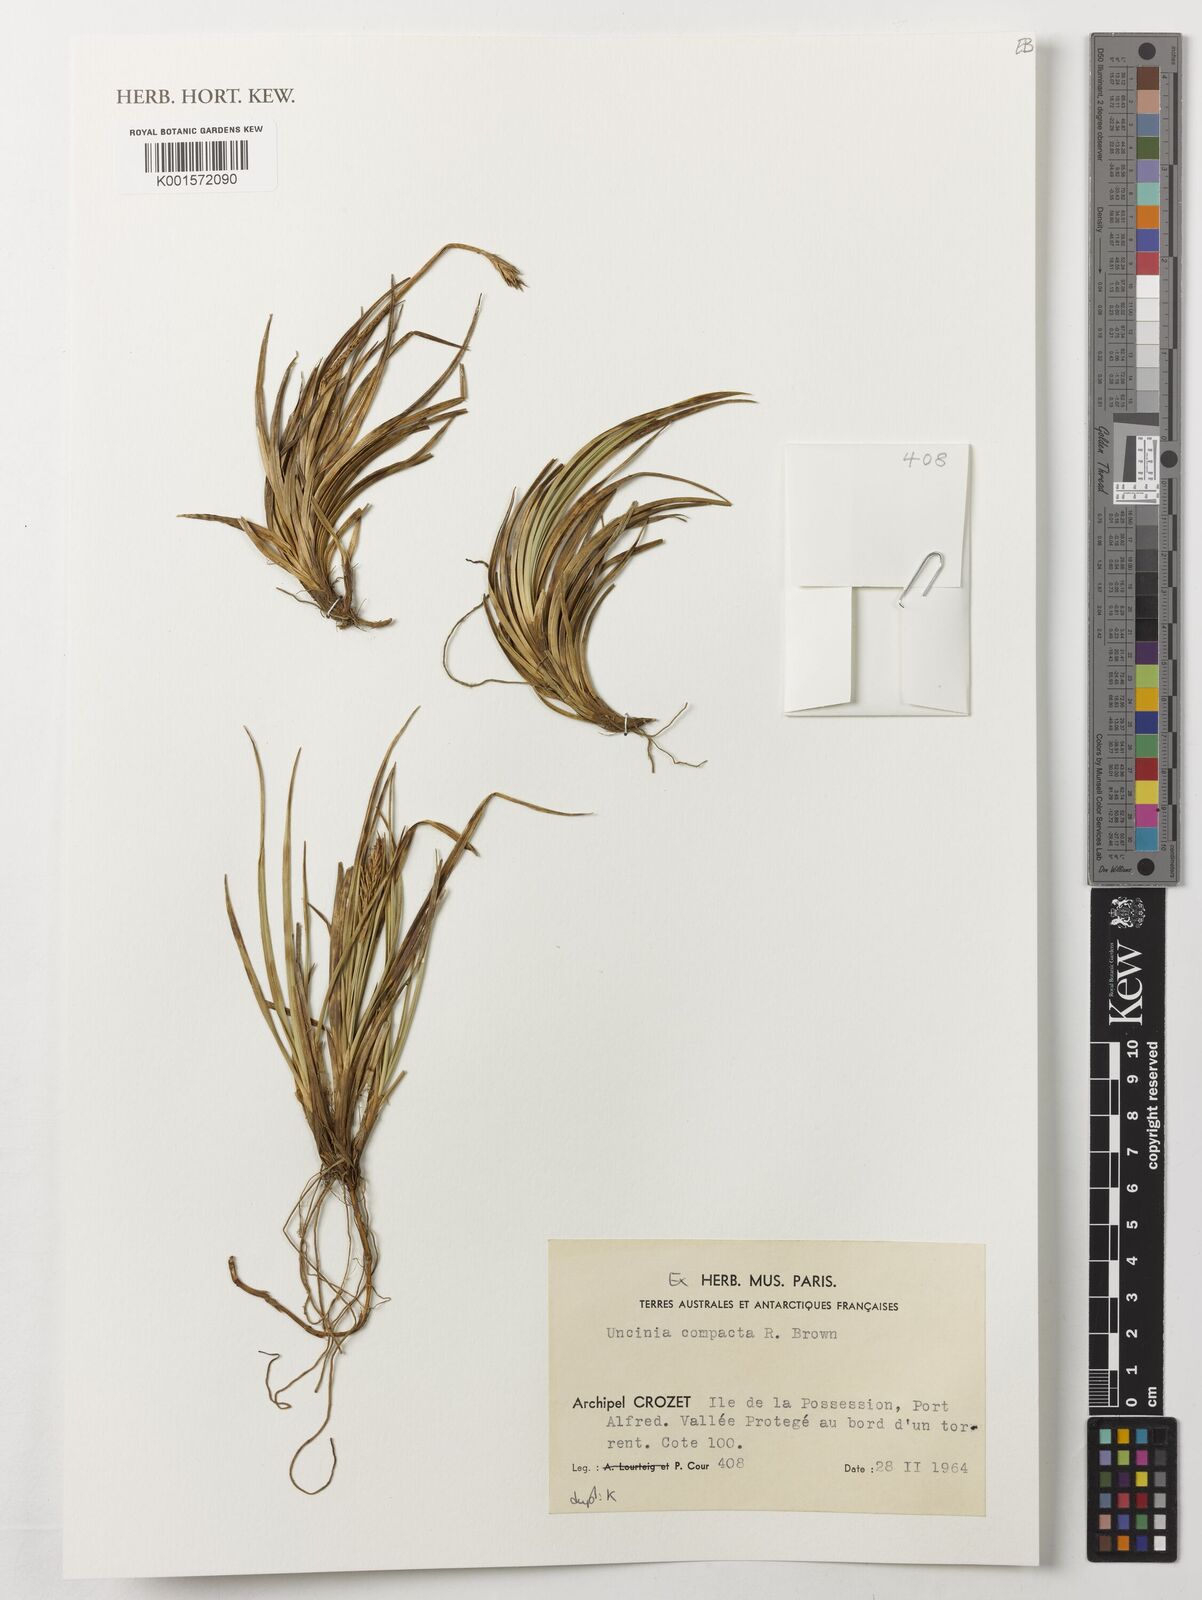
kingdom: Plantae
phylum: Tracheophyta
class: Liliopsida
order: Poales
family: Cyperaceae
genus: Carex
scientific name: Carex austrocompacta
